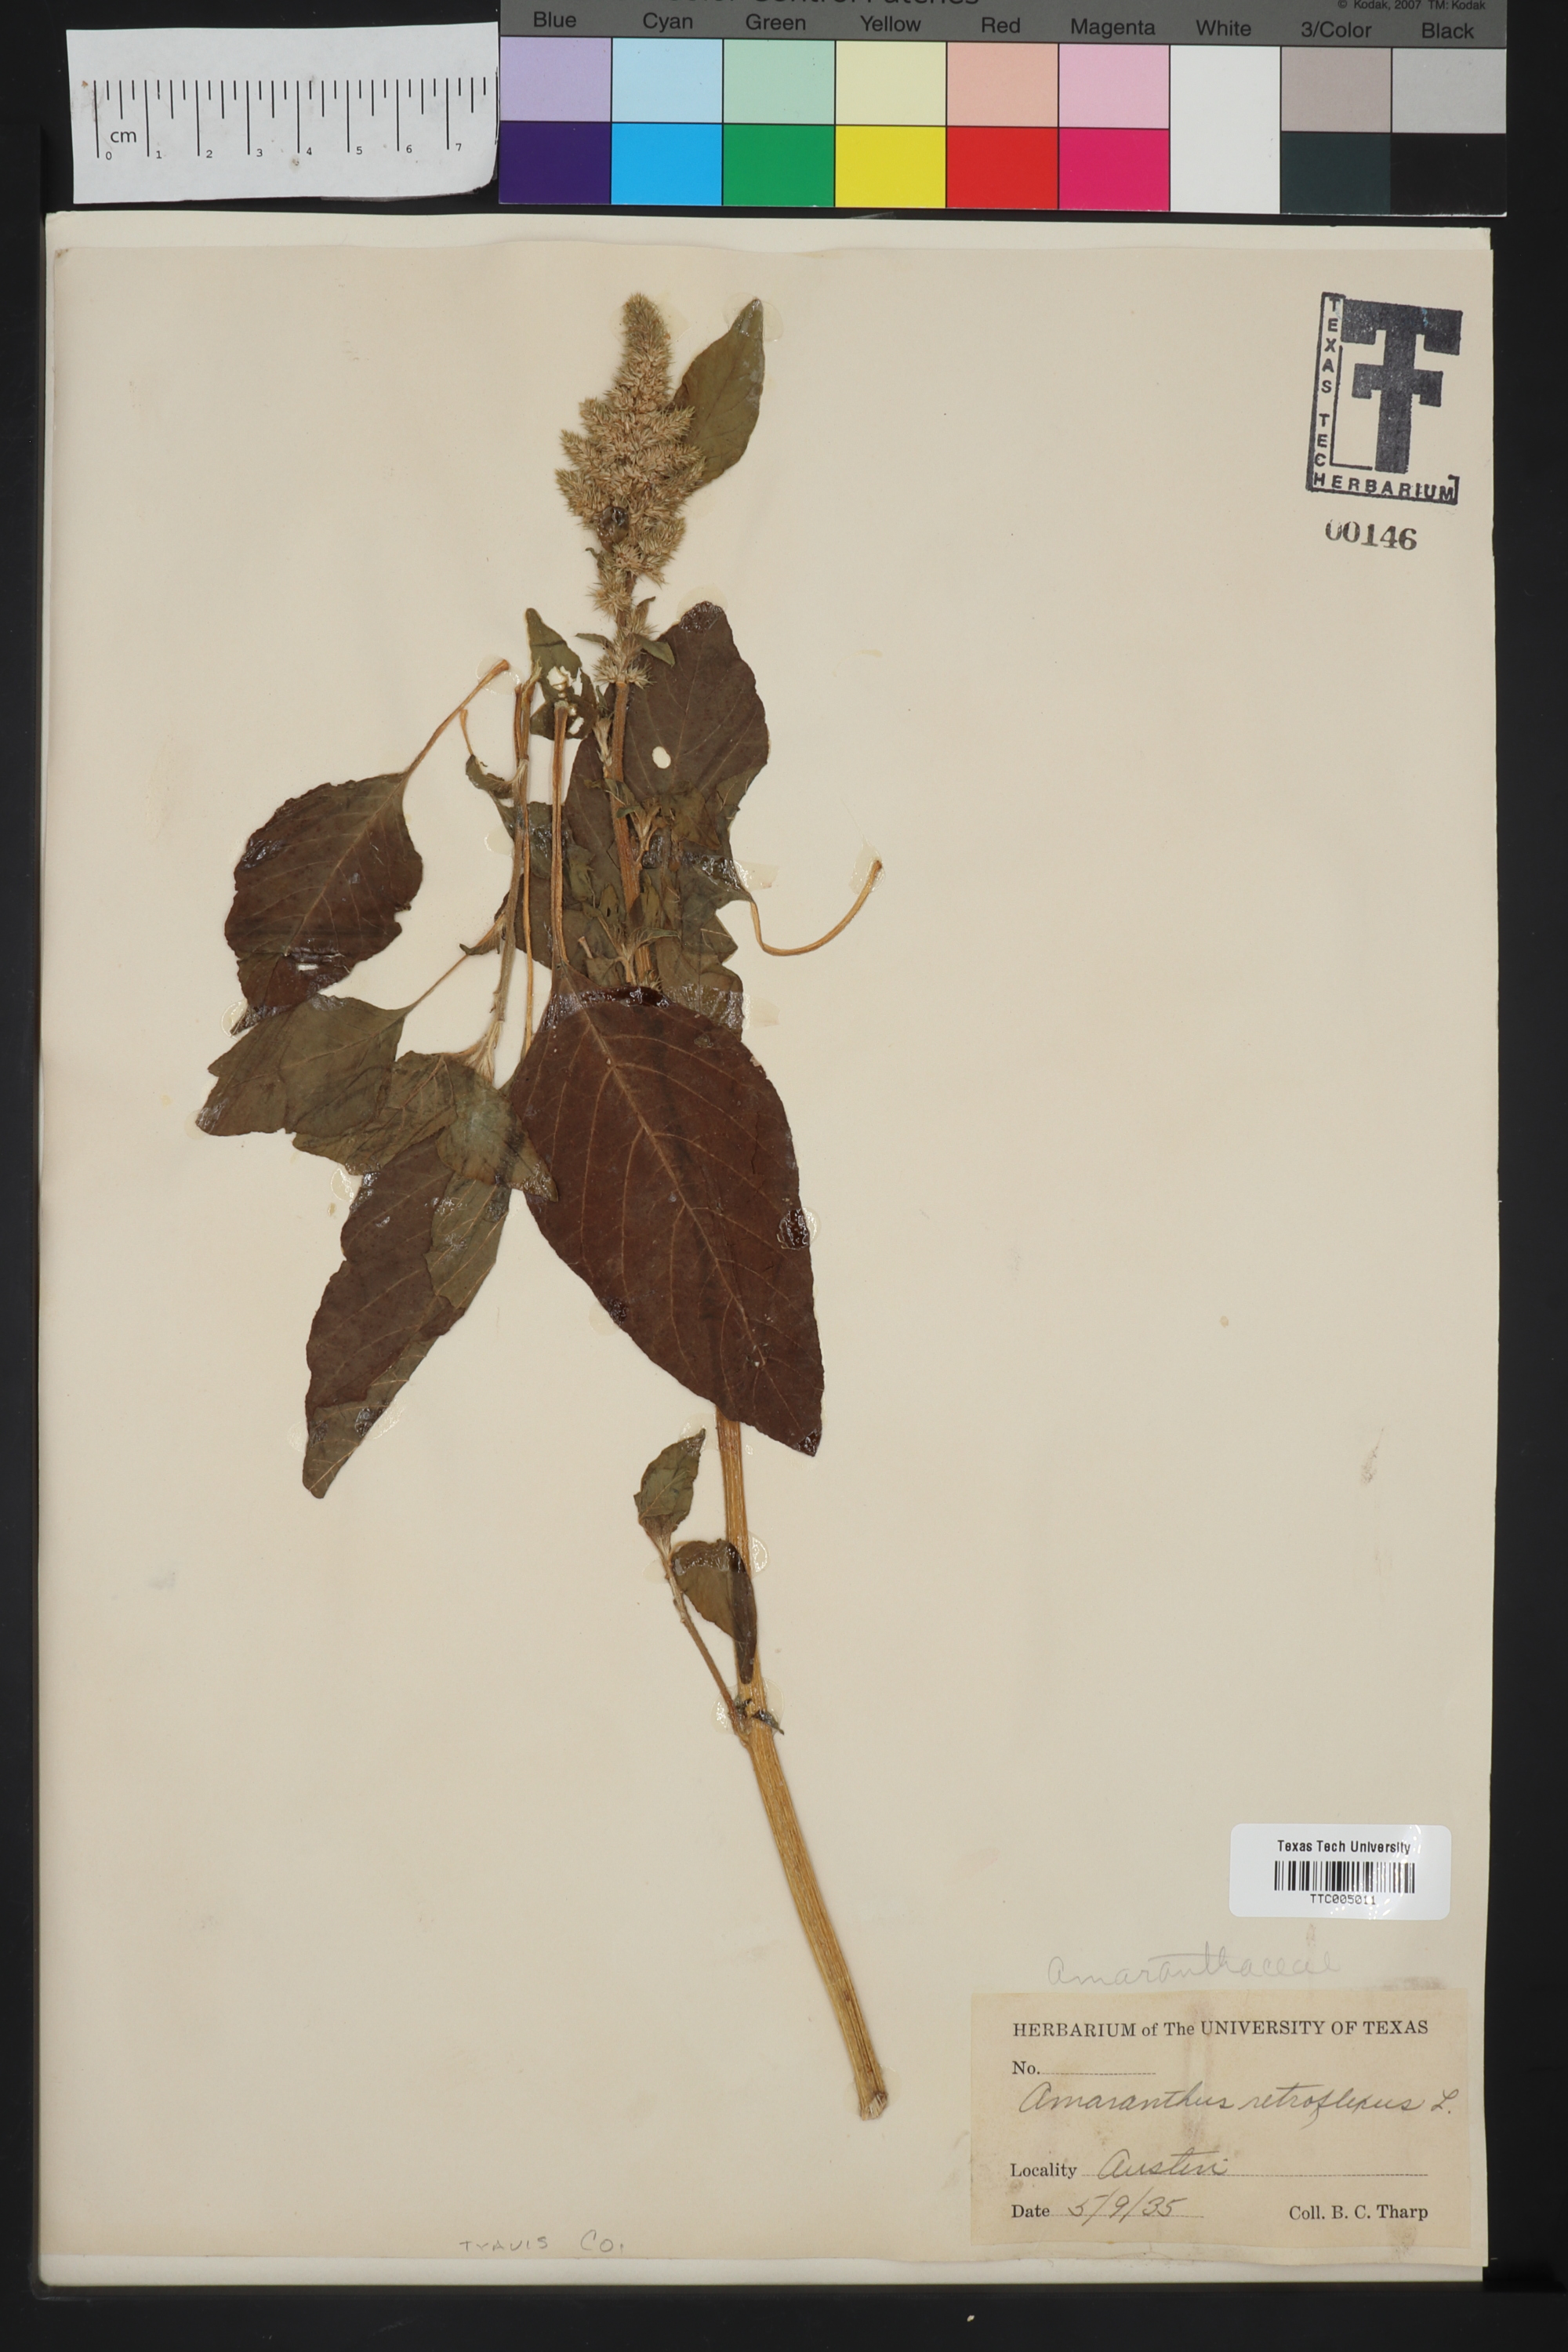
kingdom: Plantae
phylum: Tracheophyta
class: Magnoliopsida
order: Caryophyllales
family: Amaranthaceae
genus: Amaranthus
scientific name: Amaranthus retroflexus
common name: Redroot amaranth
